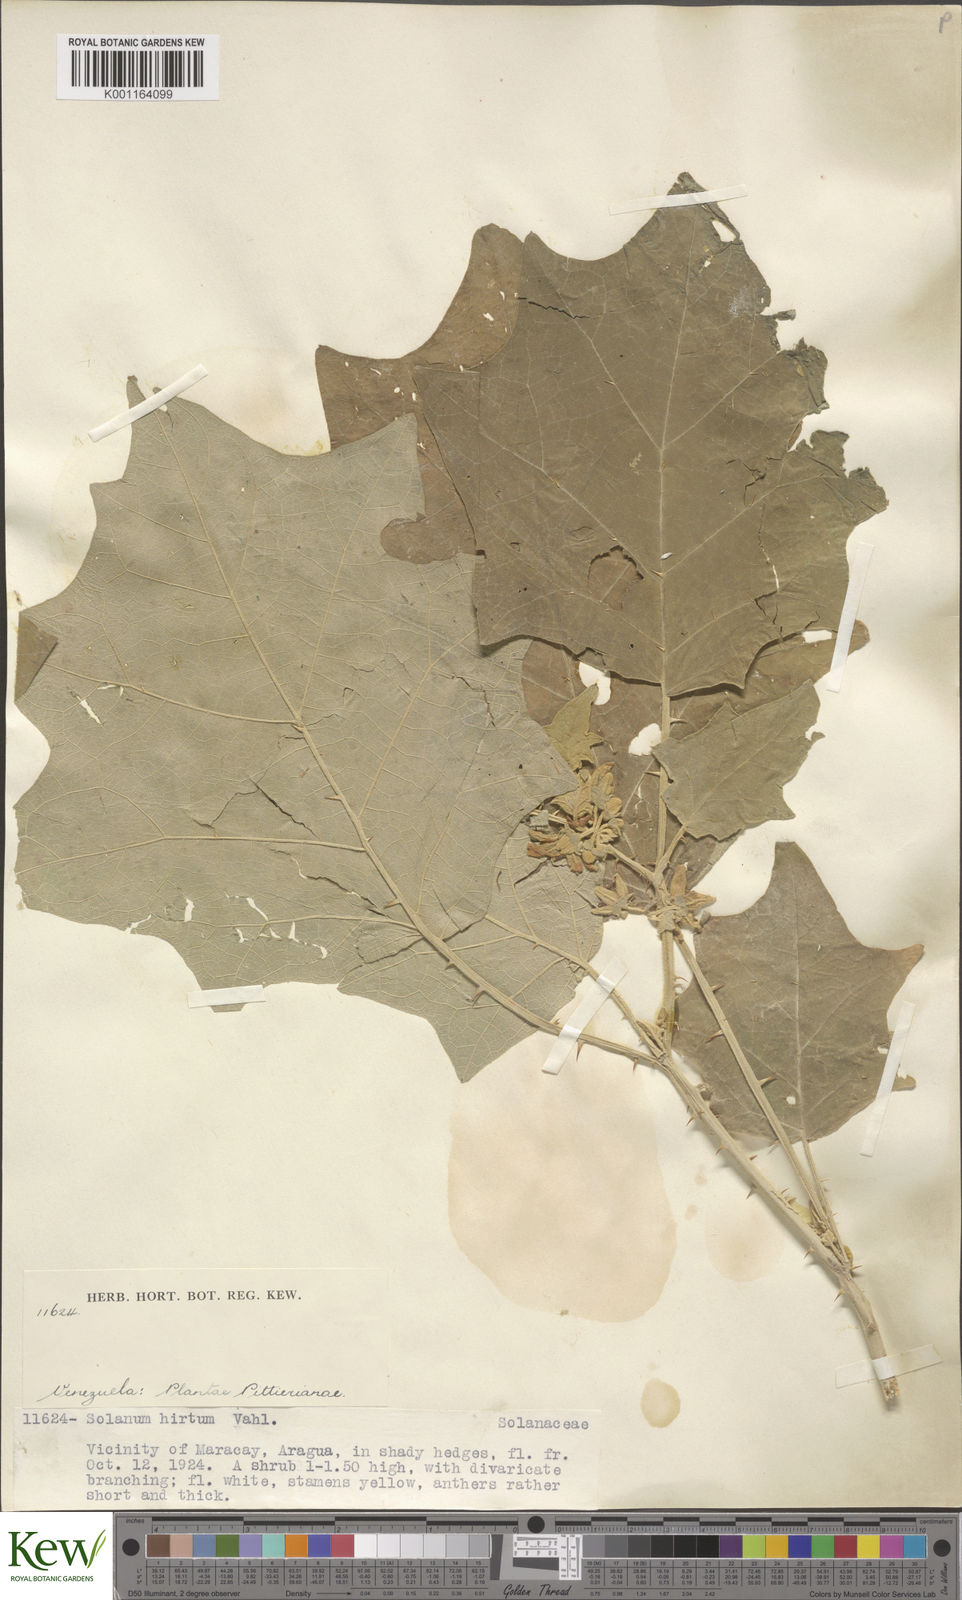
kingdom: Plantae
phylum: Tracheophyta
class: Magnoliopsida
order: Solanales
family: Solanaceae
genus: Solanum
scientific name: Solanum hirtum
